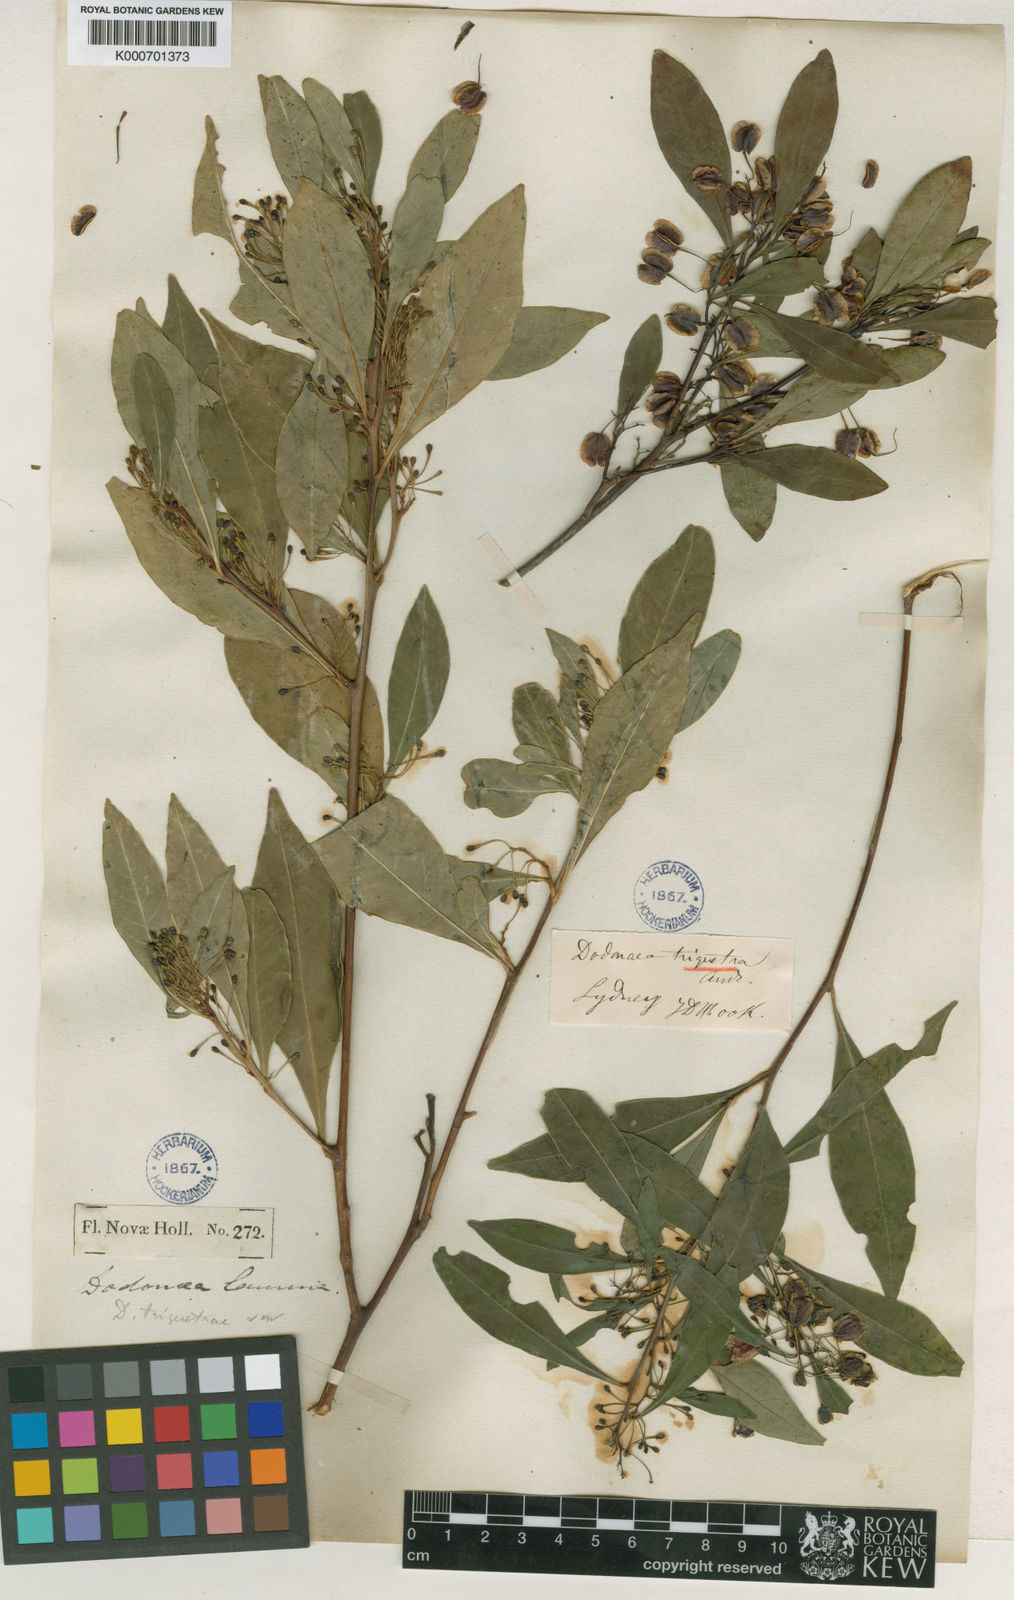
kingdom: Plantae
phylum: Tracheophyta
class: Magnoliopsida
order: Sapindales
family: Sapindaceae
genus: Dodonaea
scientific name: Dodonaea triquetra
